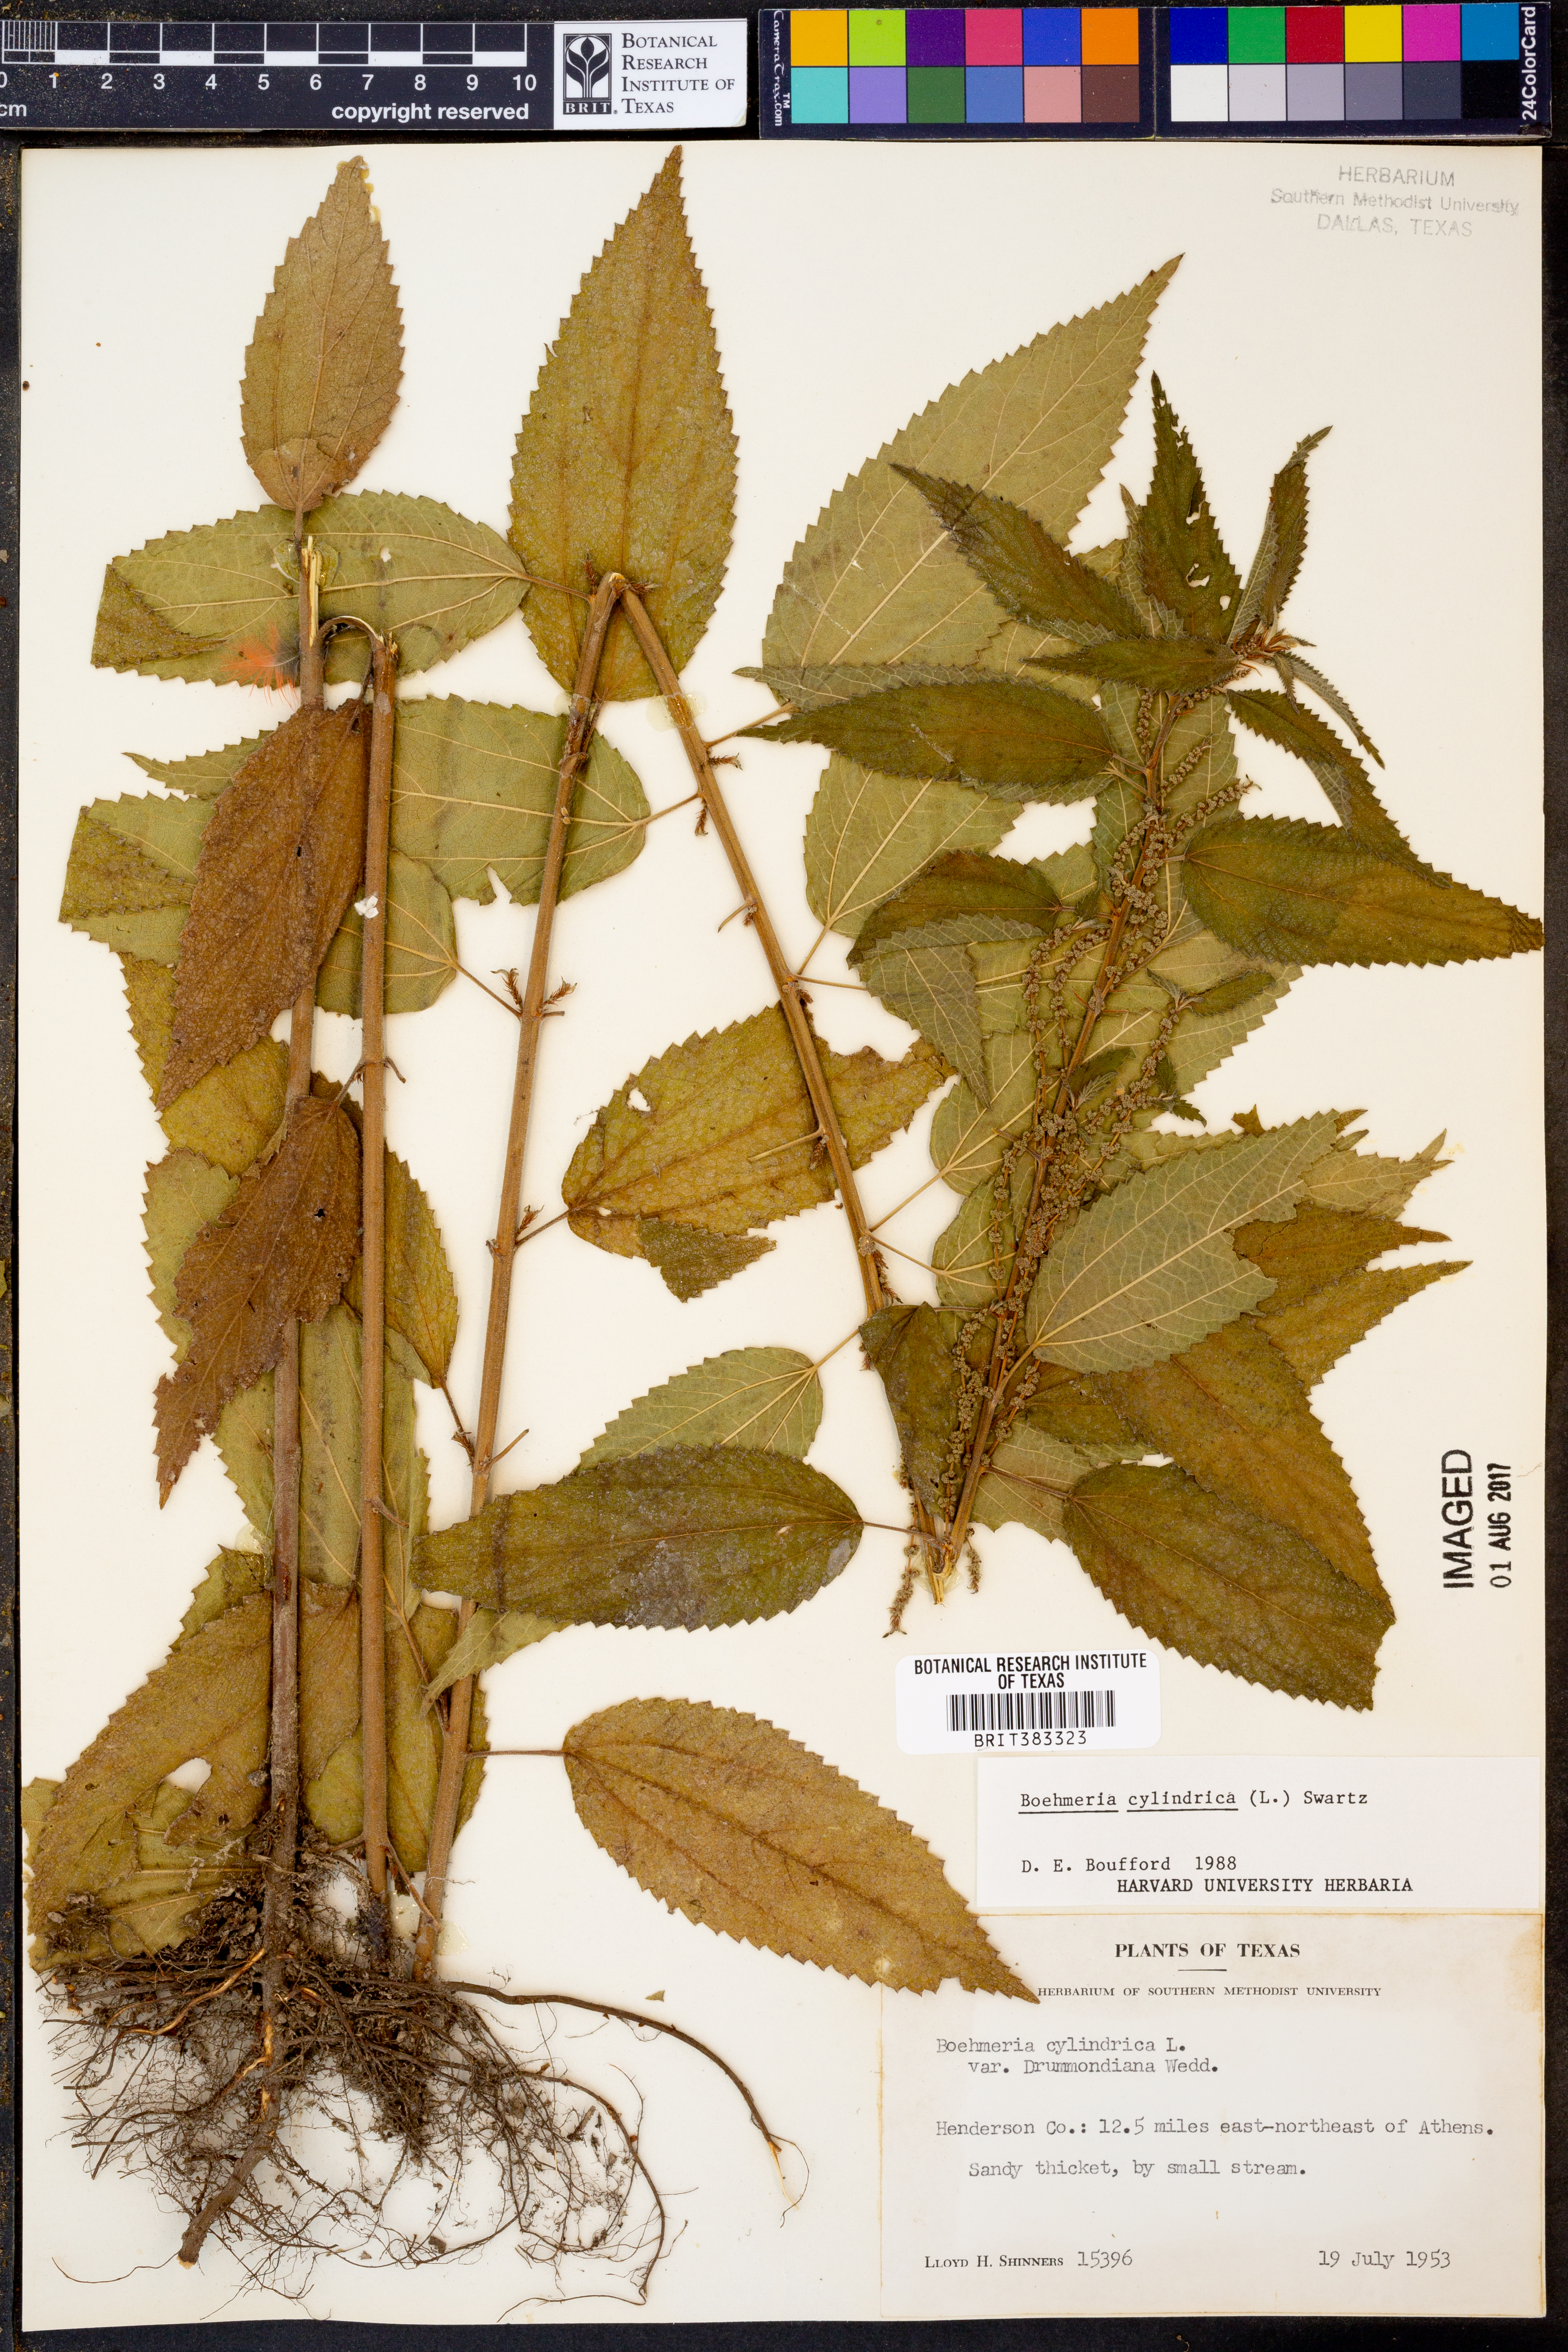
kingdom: Plantae
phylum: Tracheophyta
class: Magnoliopsida
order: Rosales
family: Urticaceae
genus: Boehmeria
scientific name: Boehmeria cylindrica
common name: Bog-hemp
